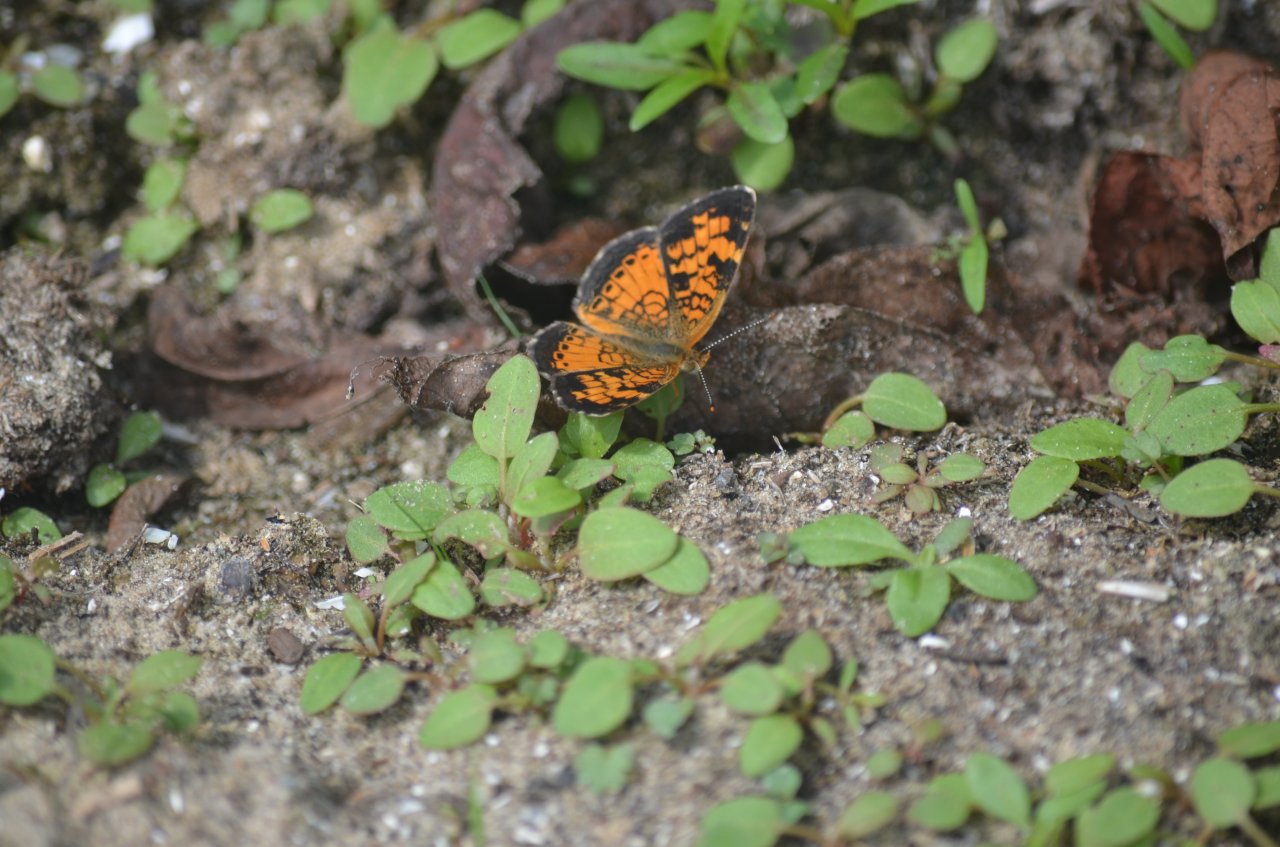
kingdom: Animalia
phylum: Arthropoda
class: Insecta
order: Lepidoptera
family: Nymphalidae
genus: Phyciodes
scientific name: Phyciodes tharos
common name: Northern Crescent
